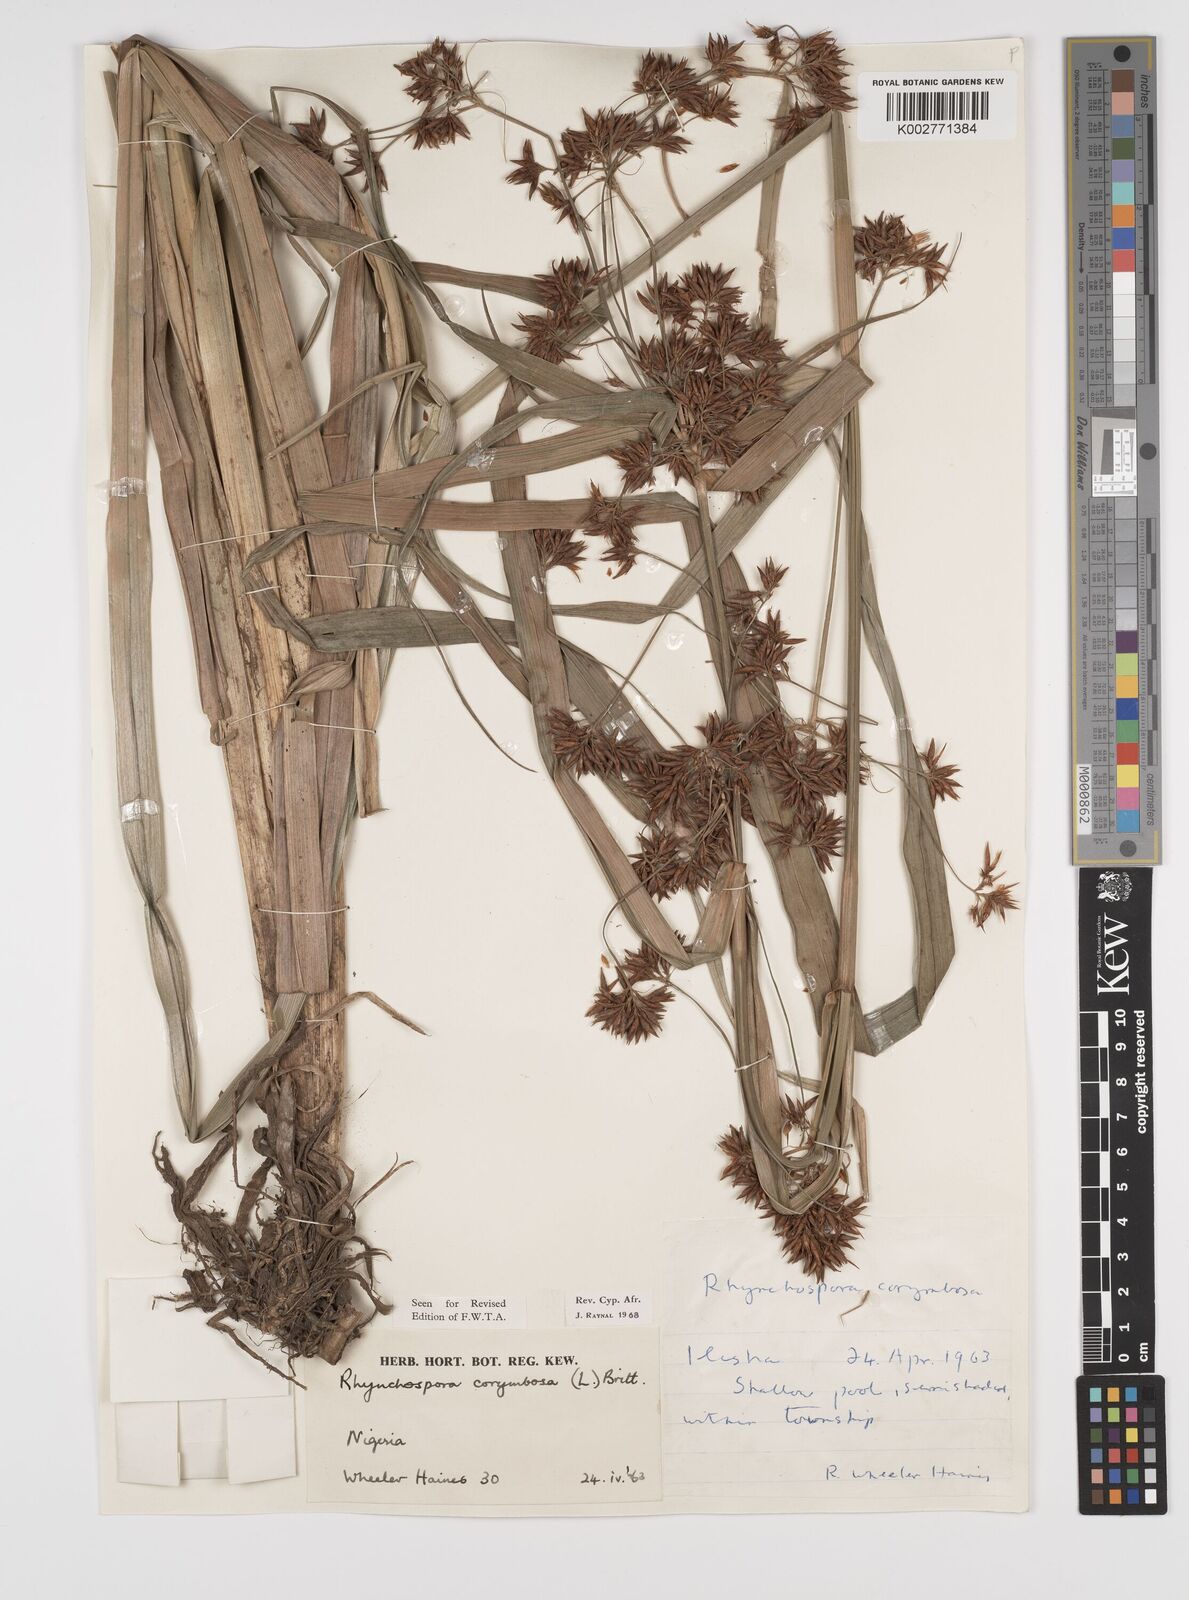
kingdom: Plantae
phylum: Tracheophyta
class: Liliopsida
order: Poales
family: Cyperaceae
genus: Rhynchospora
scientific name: Rhynchospora corymbosa
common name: Golden beak sedge
